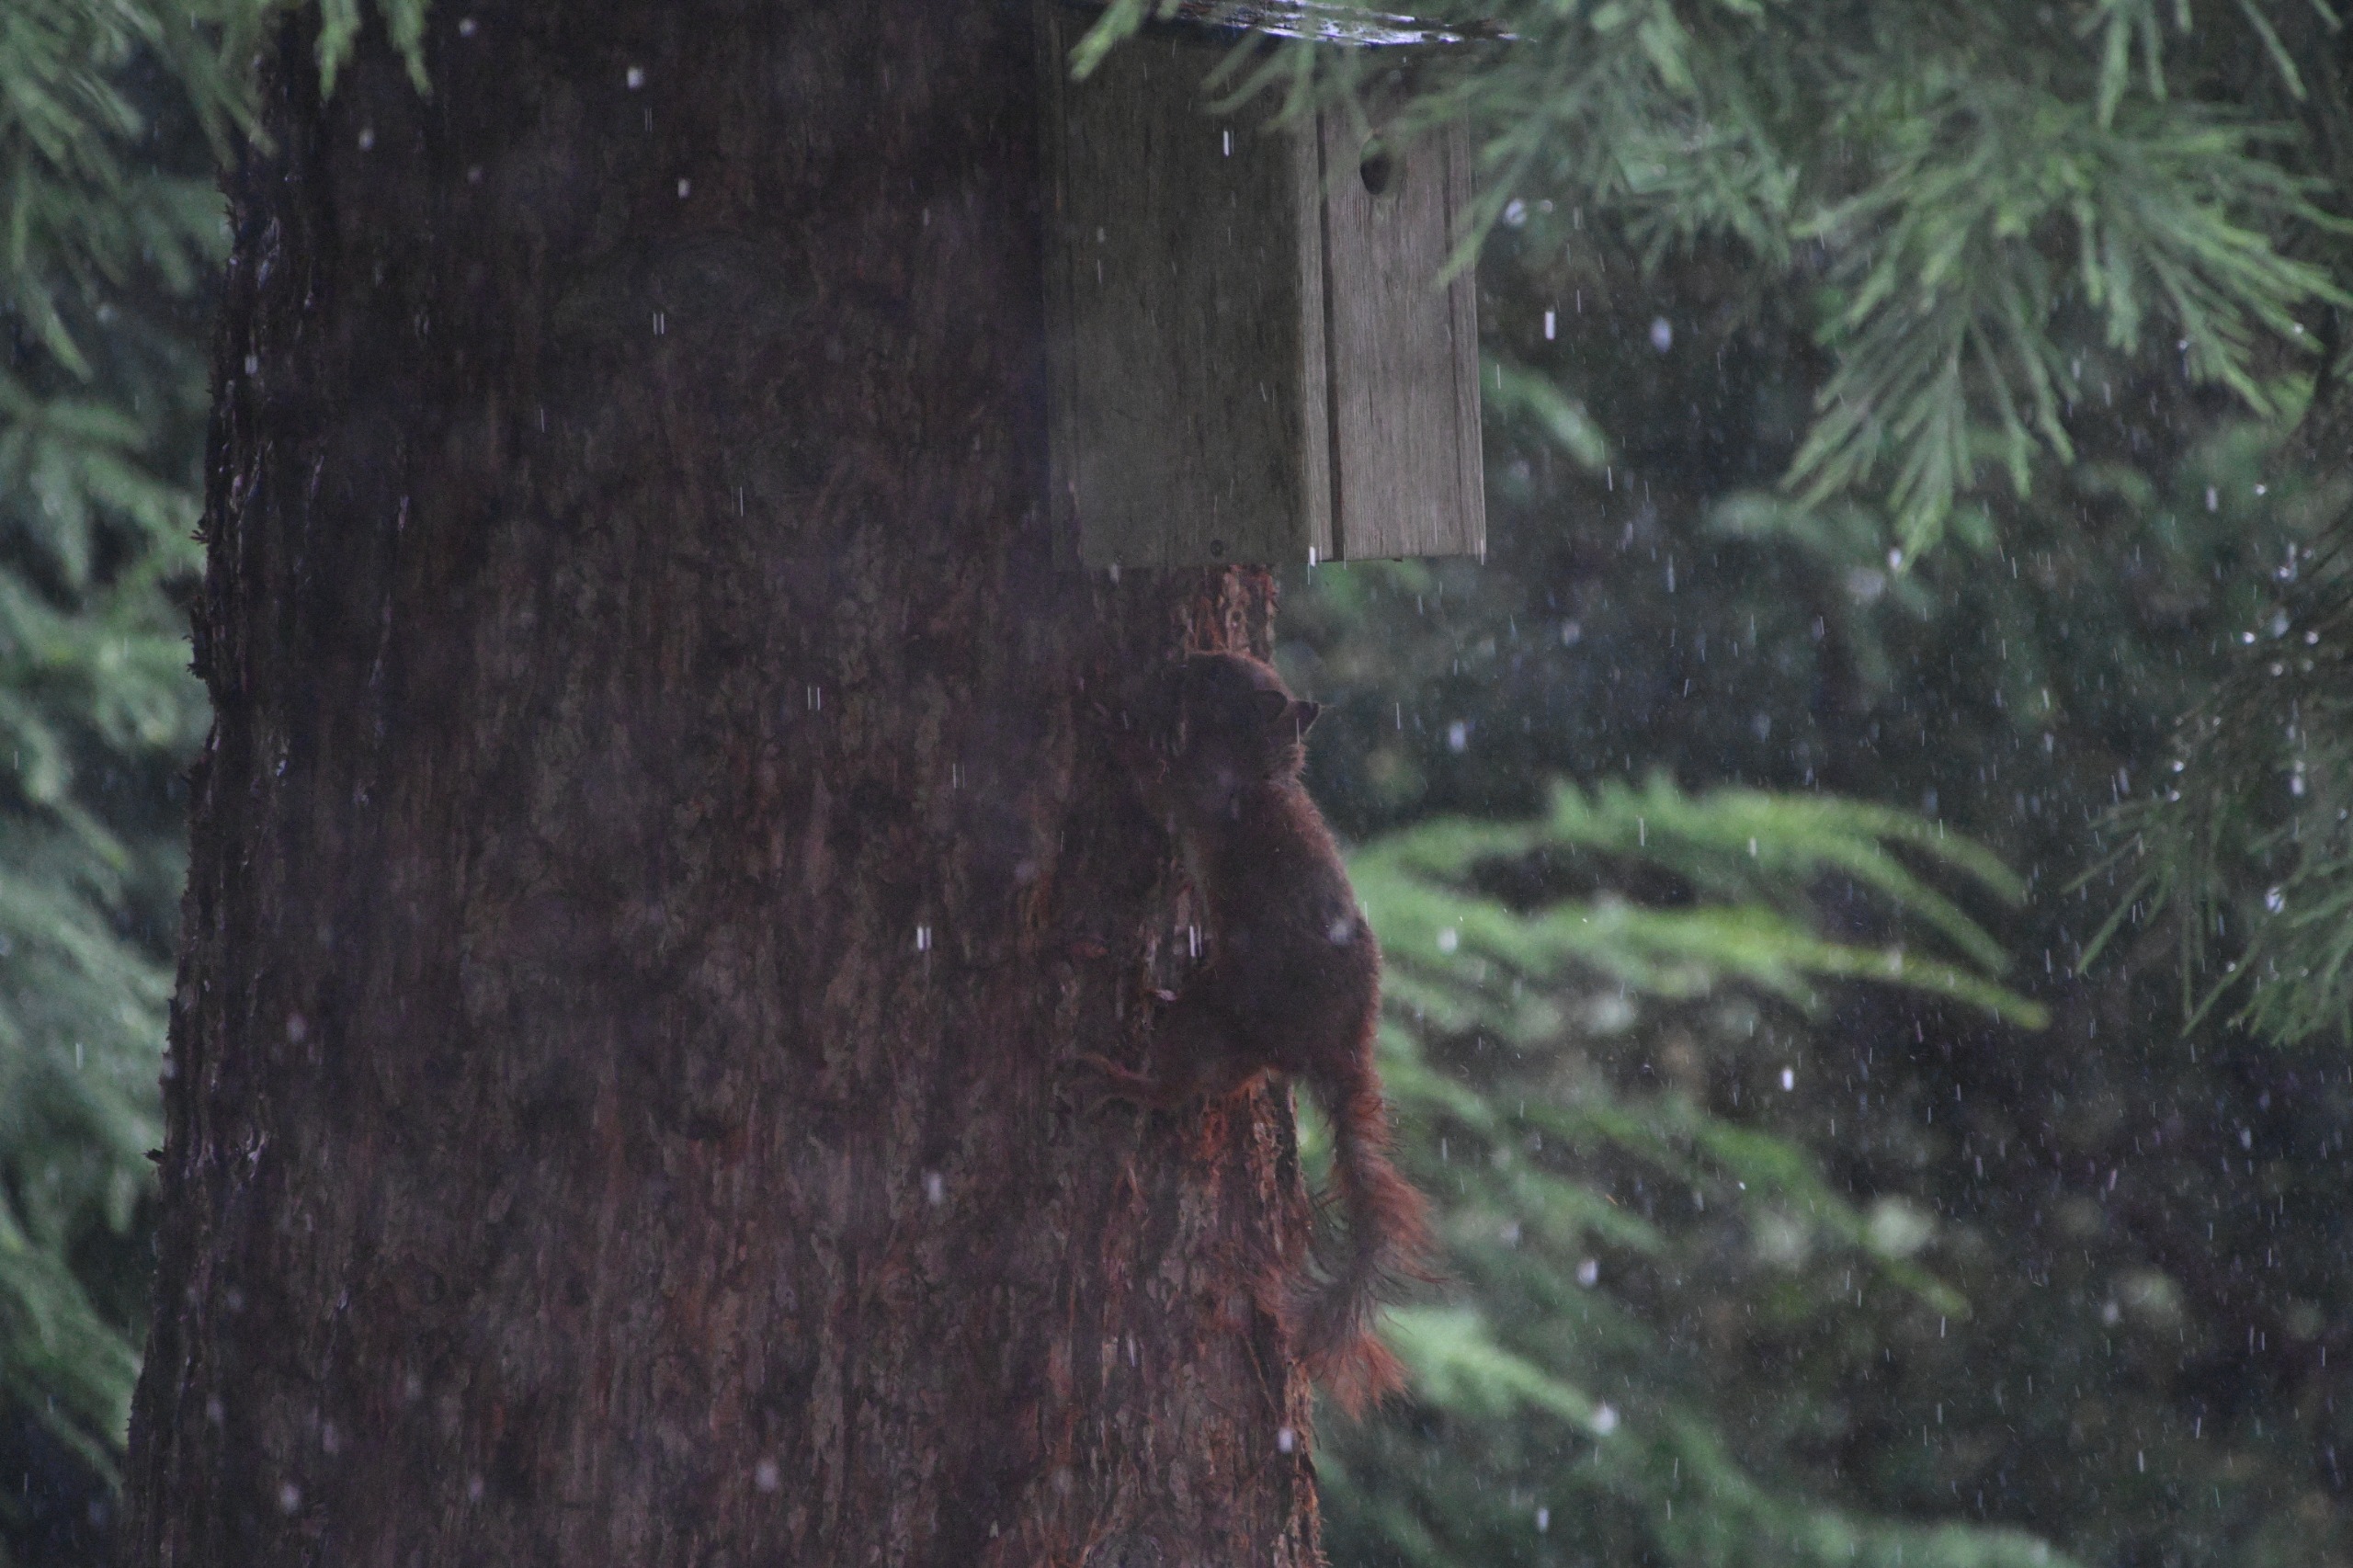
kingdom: Animalia
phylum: Chordata
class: Mammalia
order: Rodentia
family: Sciuridae
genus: Sciurus
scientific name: Sciurus vulgaris
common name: Egern
